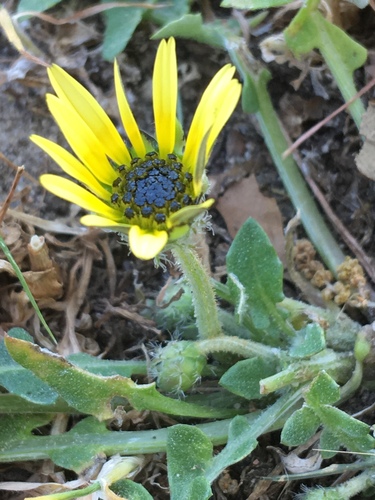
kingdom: Plantae
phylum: Tracheophyta
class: Magnoliopsida
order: Asterales
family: Asteraceae
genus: Arctotheca
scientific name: Arctotheca calendula
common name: Capeweed
